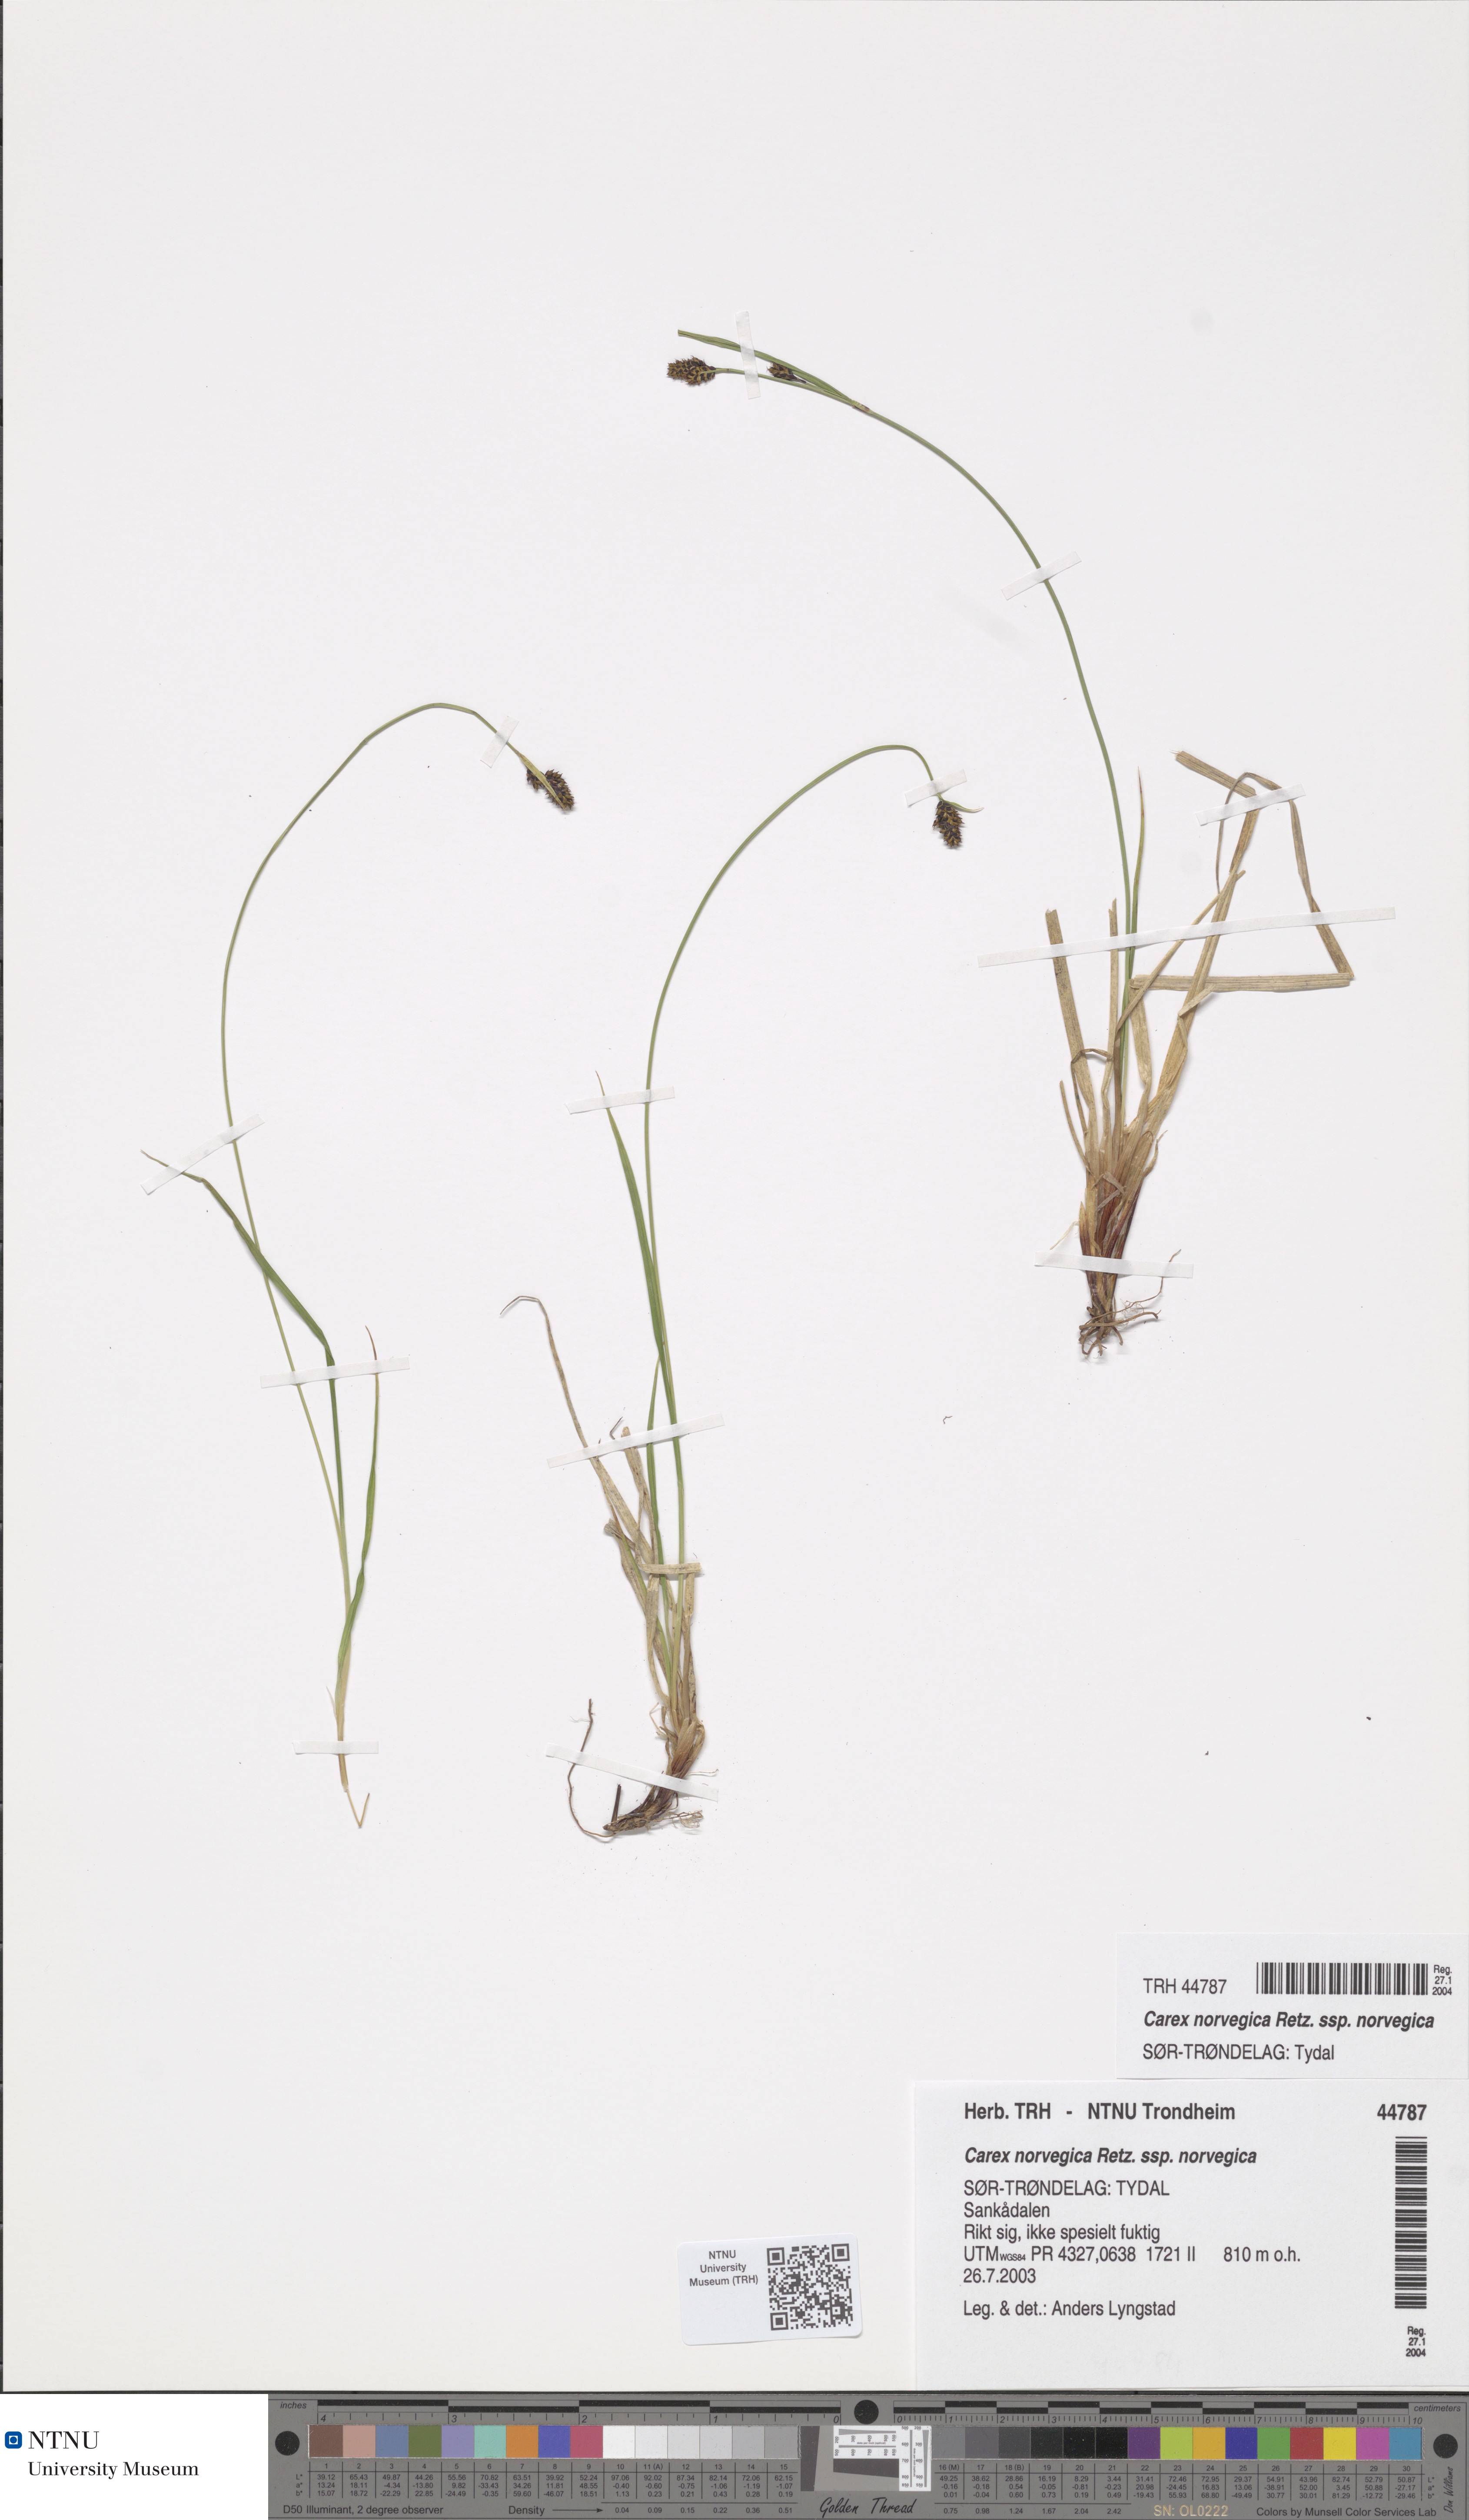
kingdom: Plantae
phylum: Tracheophyta
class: Liliopsida
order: Poales
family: Cyperaceae
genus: Carex
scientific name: Carex norvegica
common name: Close-headed alpine-sedge
